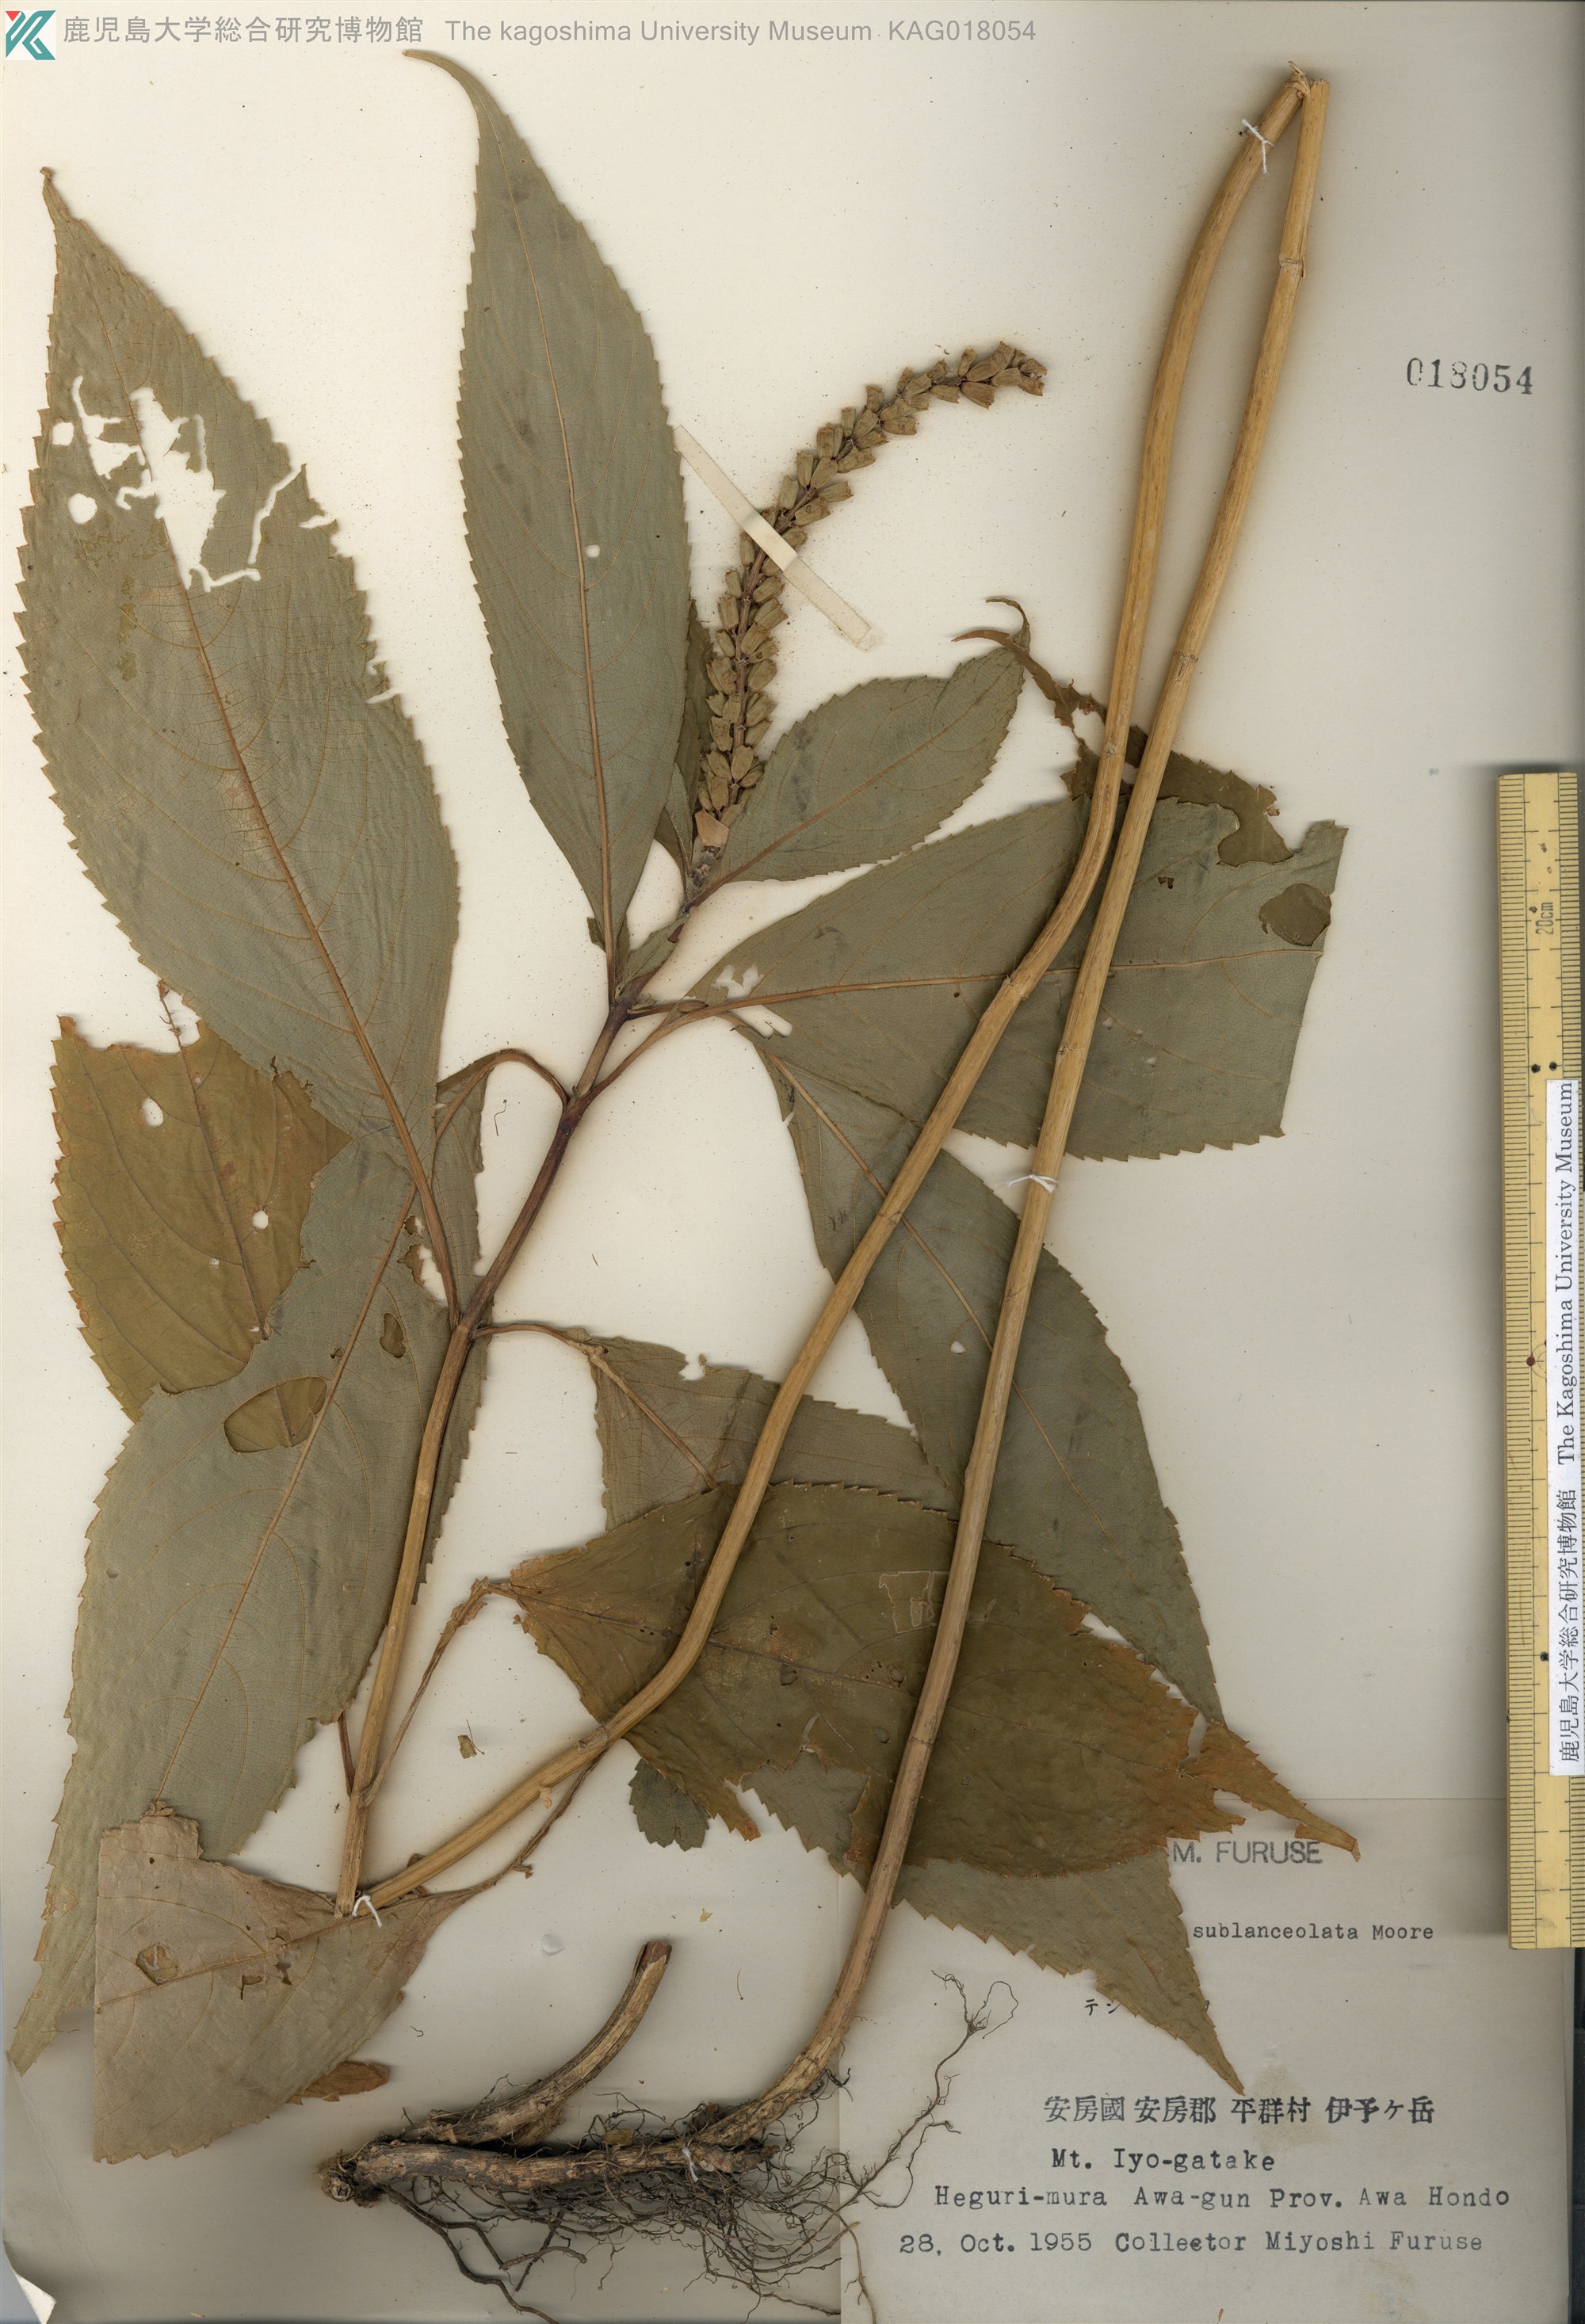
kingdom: Plantae
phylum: Tracheophyta
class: Magnoliopsida
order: Lamiales
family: Lamiaceae
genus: Comanthosphace
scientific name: Comanthosphace japonica
